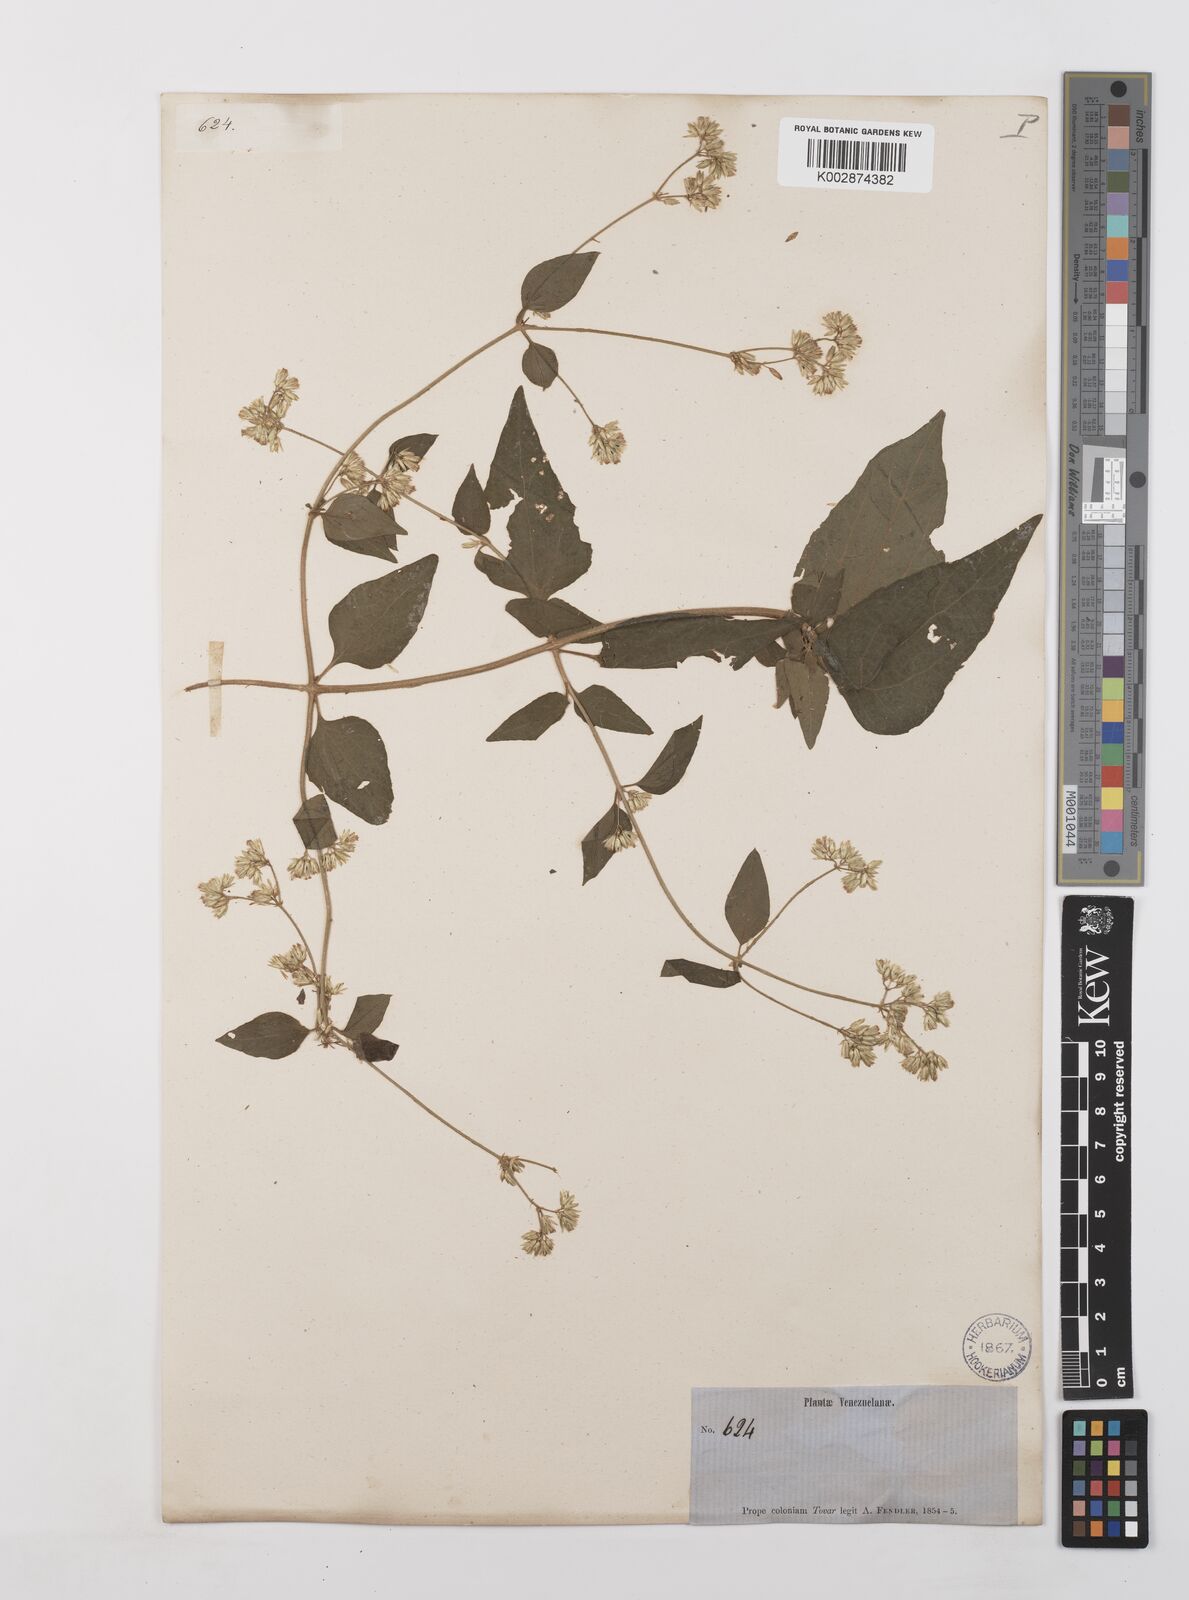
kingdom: Plantae
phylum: Tracheophyta
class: Magnoliopsida
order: Asterales
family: Asteraceae
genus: Condylidium
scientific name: Condylidium iresinoides
